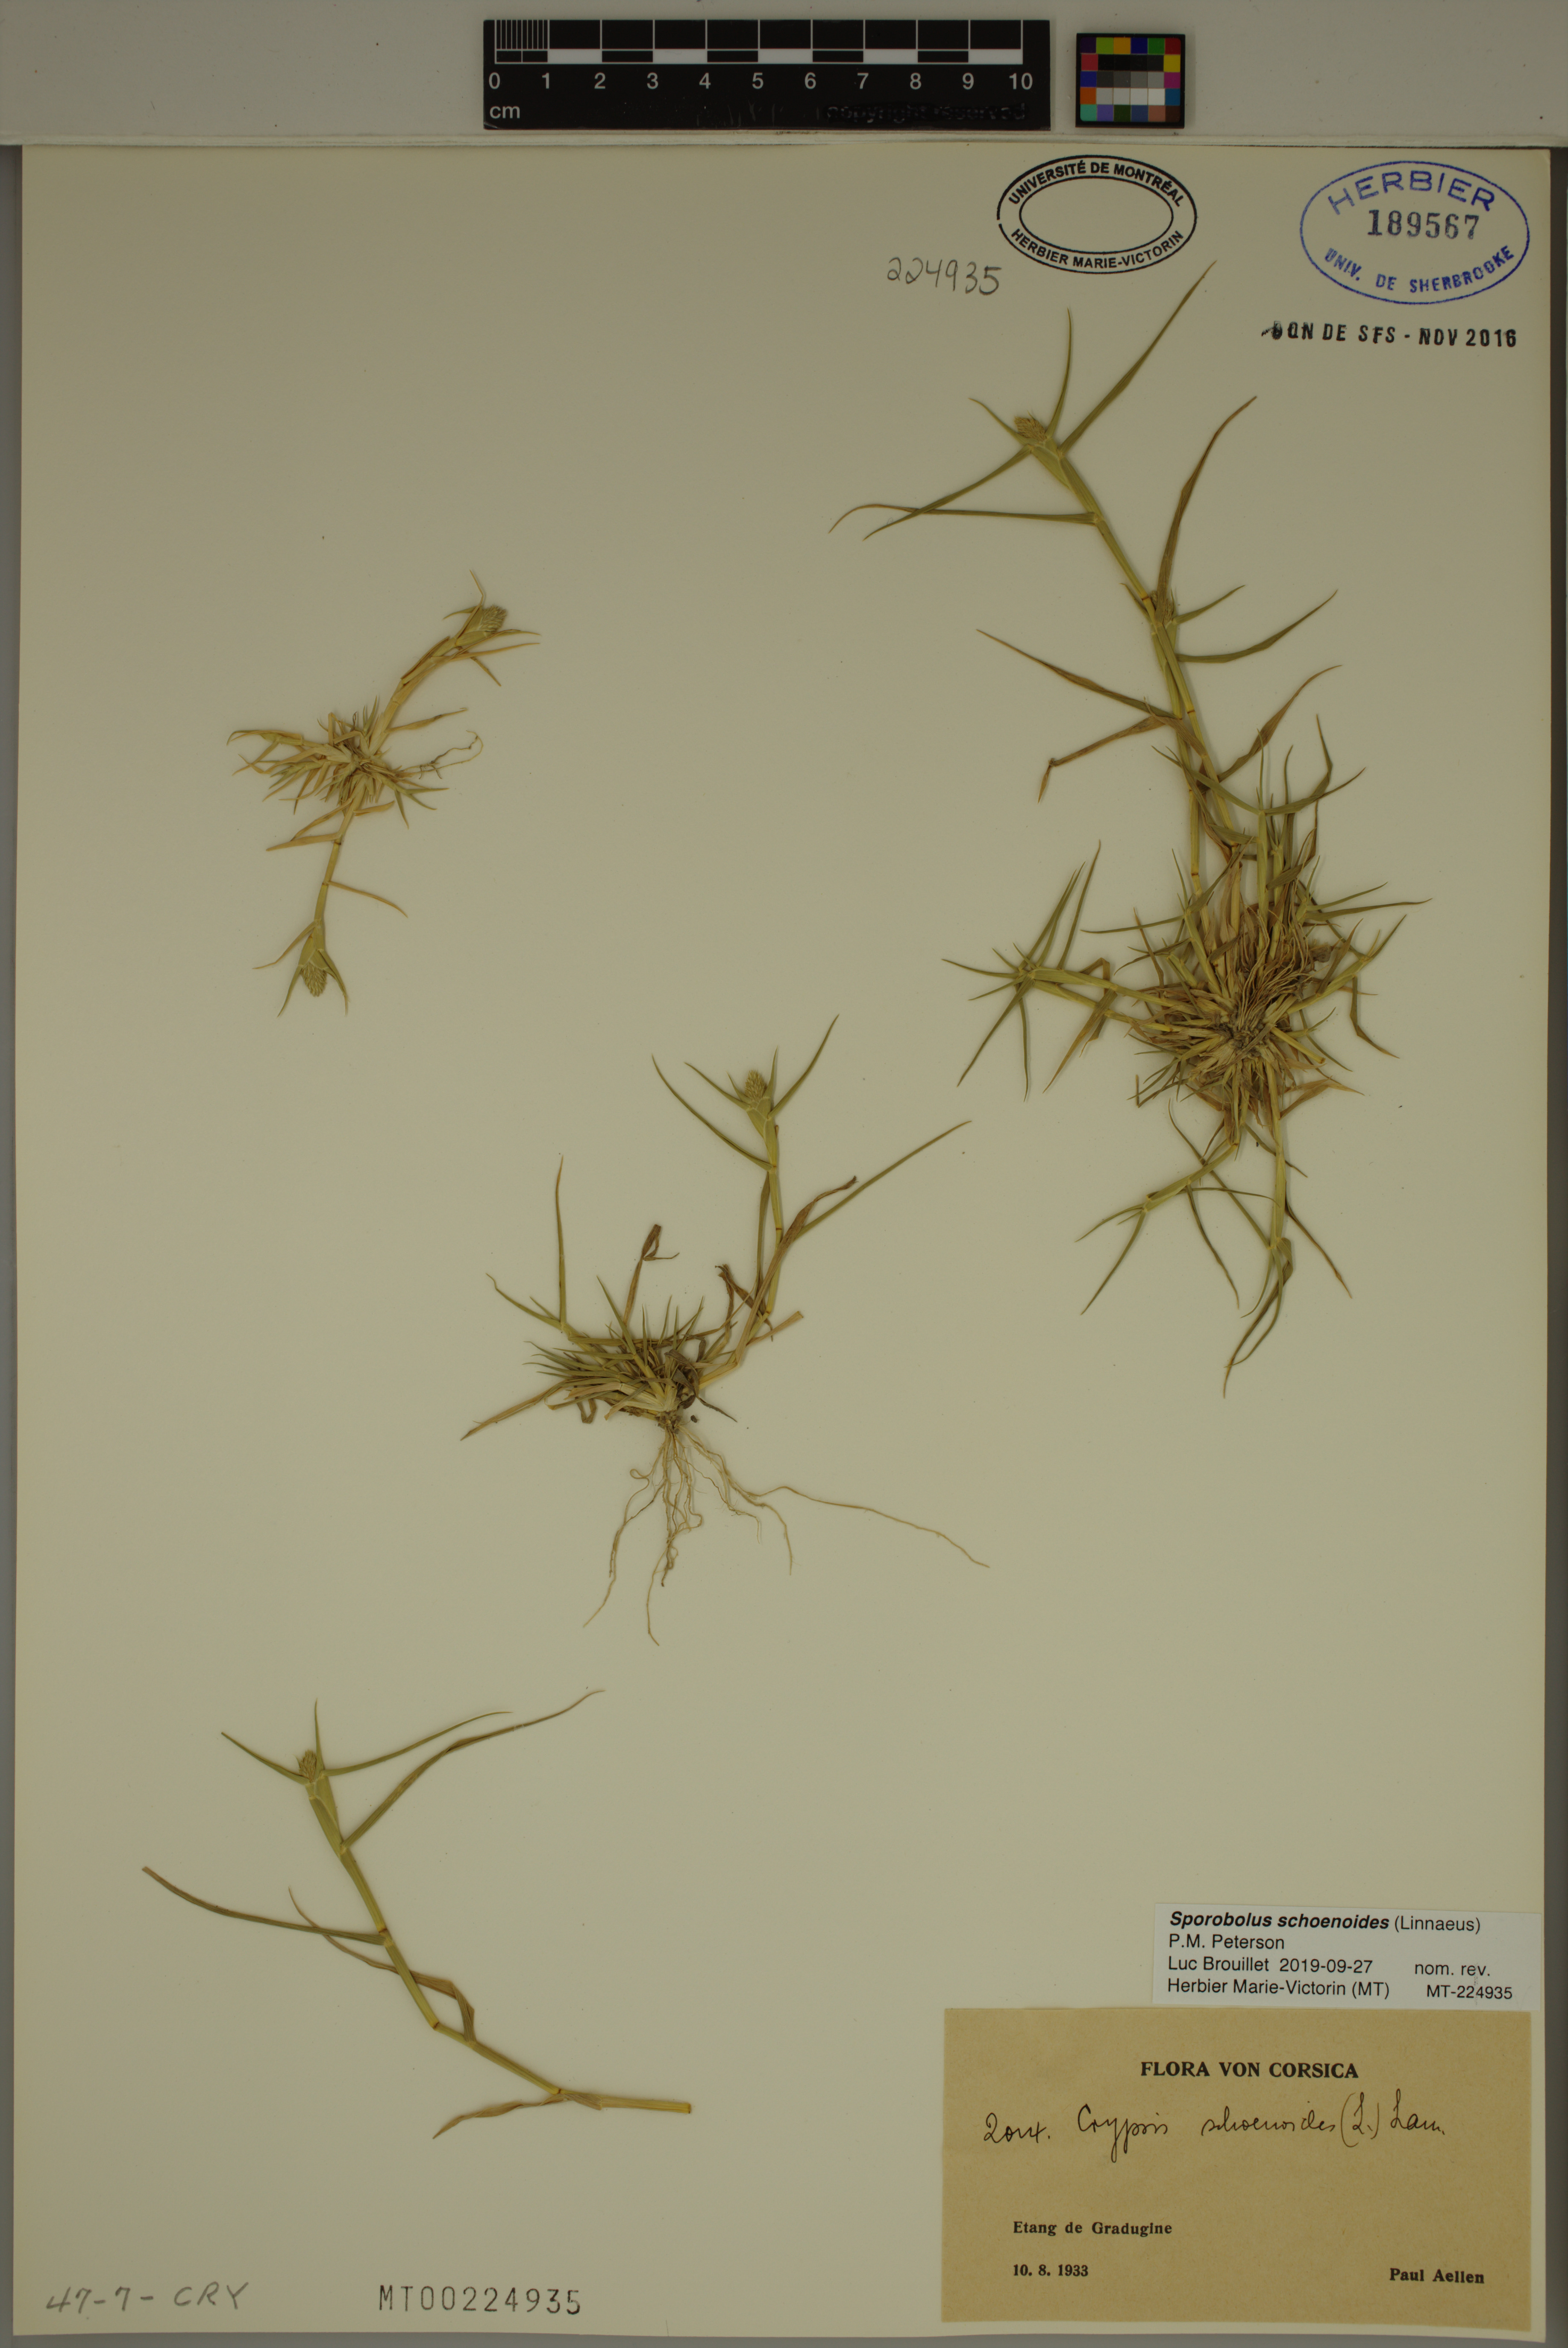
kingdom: Plantae
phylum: Tracheophyta
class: Liliopsida
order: Poales
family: Poaceae
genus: Sporobolus
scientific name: Sporobolus schoenoides
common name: Rush-like timothy
